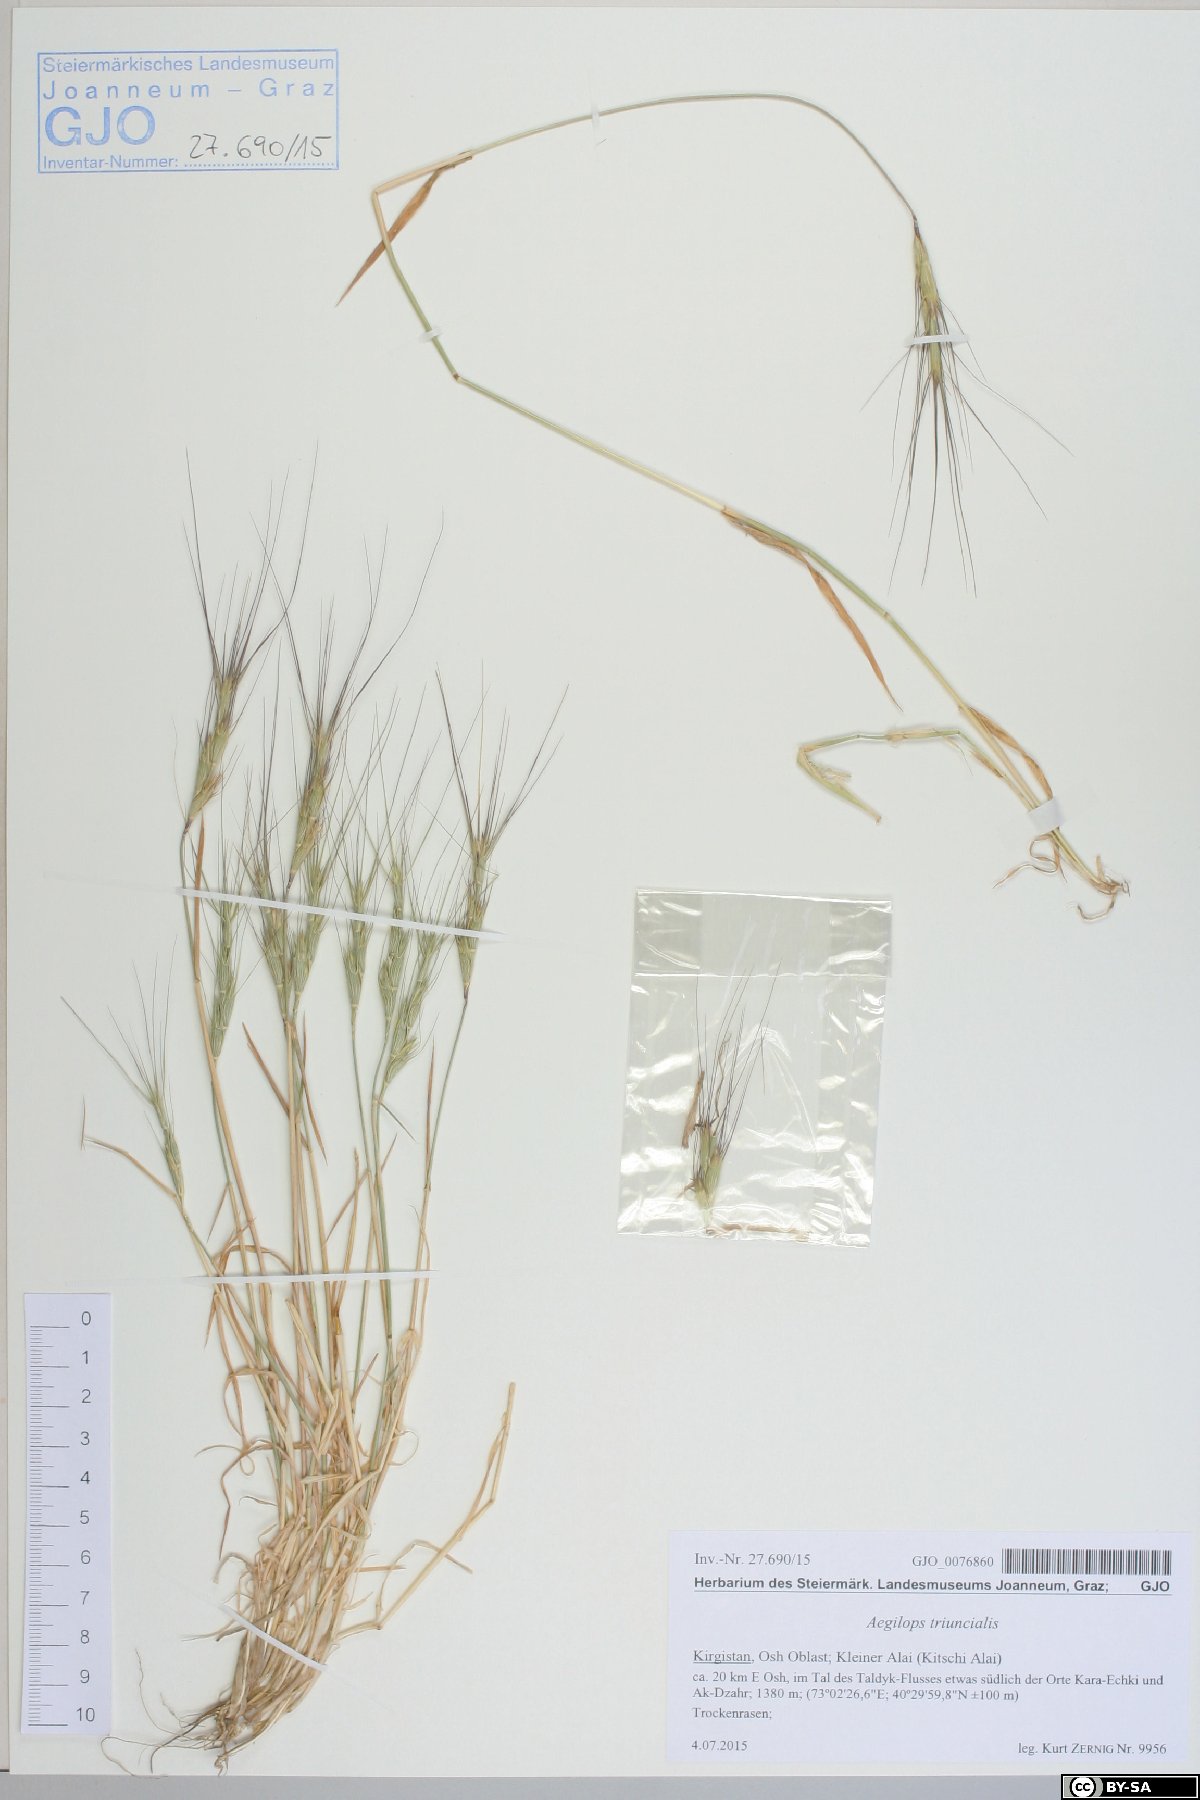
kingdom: Plantae
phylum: Tracheophyta
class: Liliopsida
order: Poales
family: Poaceae
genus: Aegilops
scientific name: Aegilops triuncialis
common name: Barb goat grass
